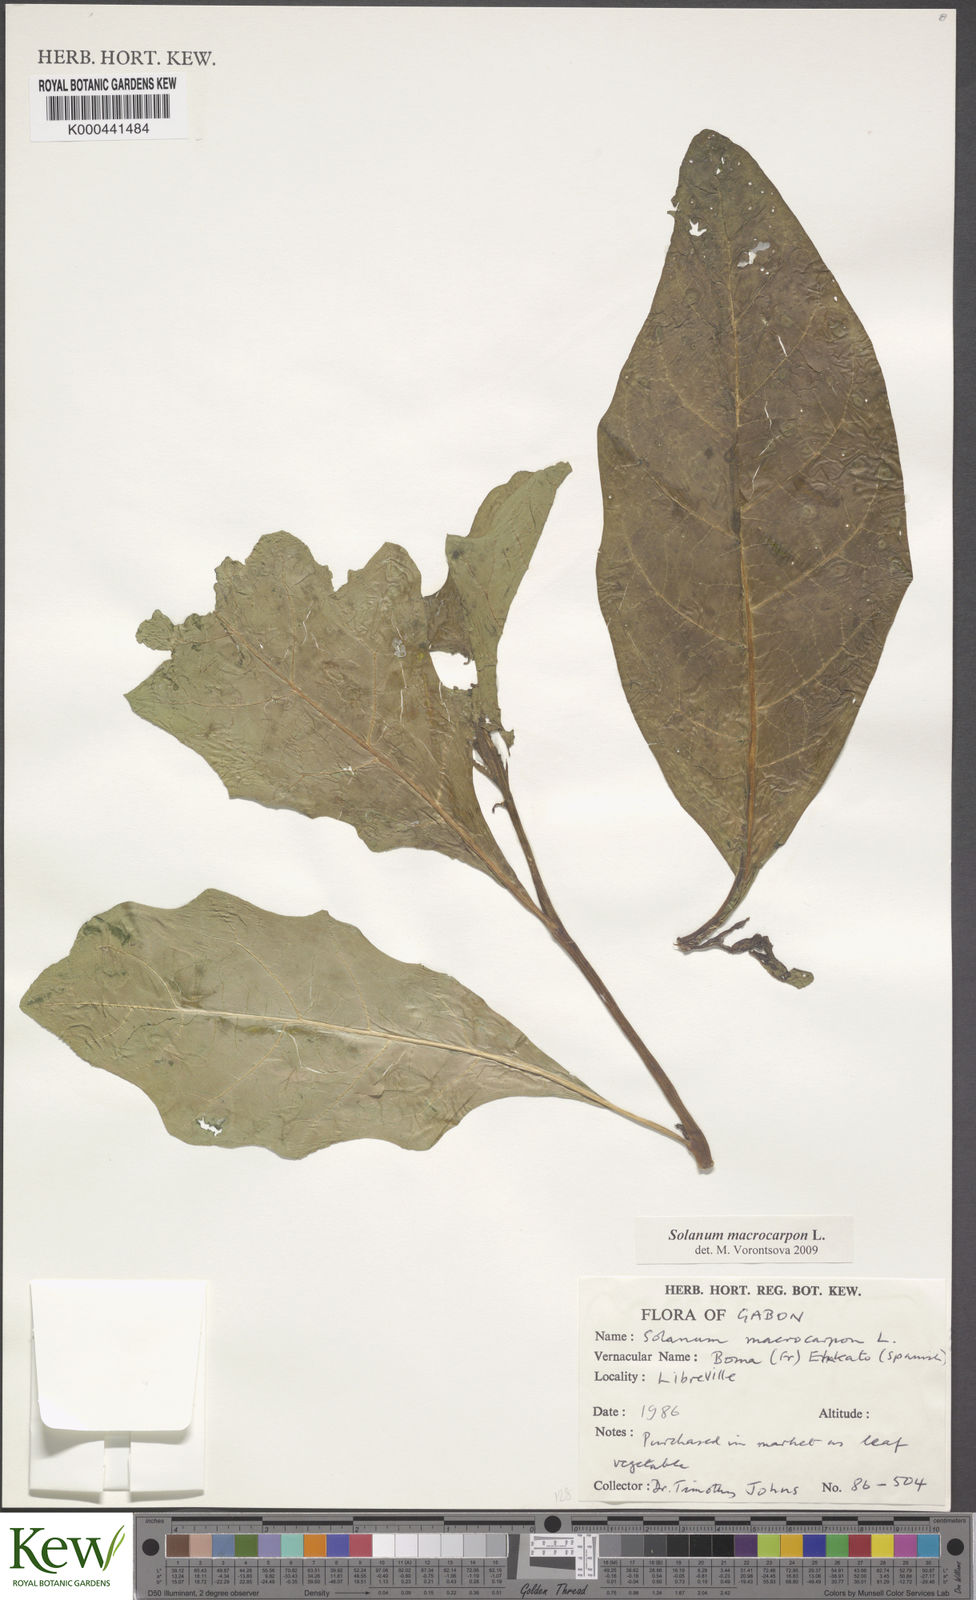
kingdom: Plantae
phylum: Tracheophyta
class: Magnoliopsida
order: Solanales
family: Solanaceae
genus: Solanum
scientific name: Solanum macrocarpon
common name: African eggplant
